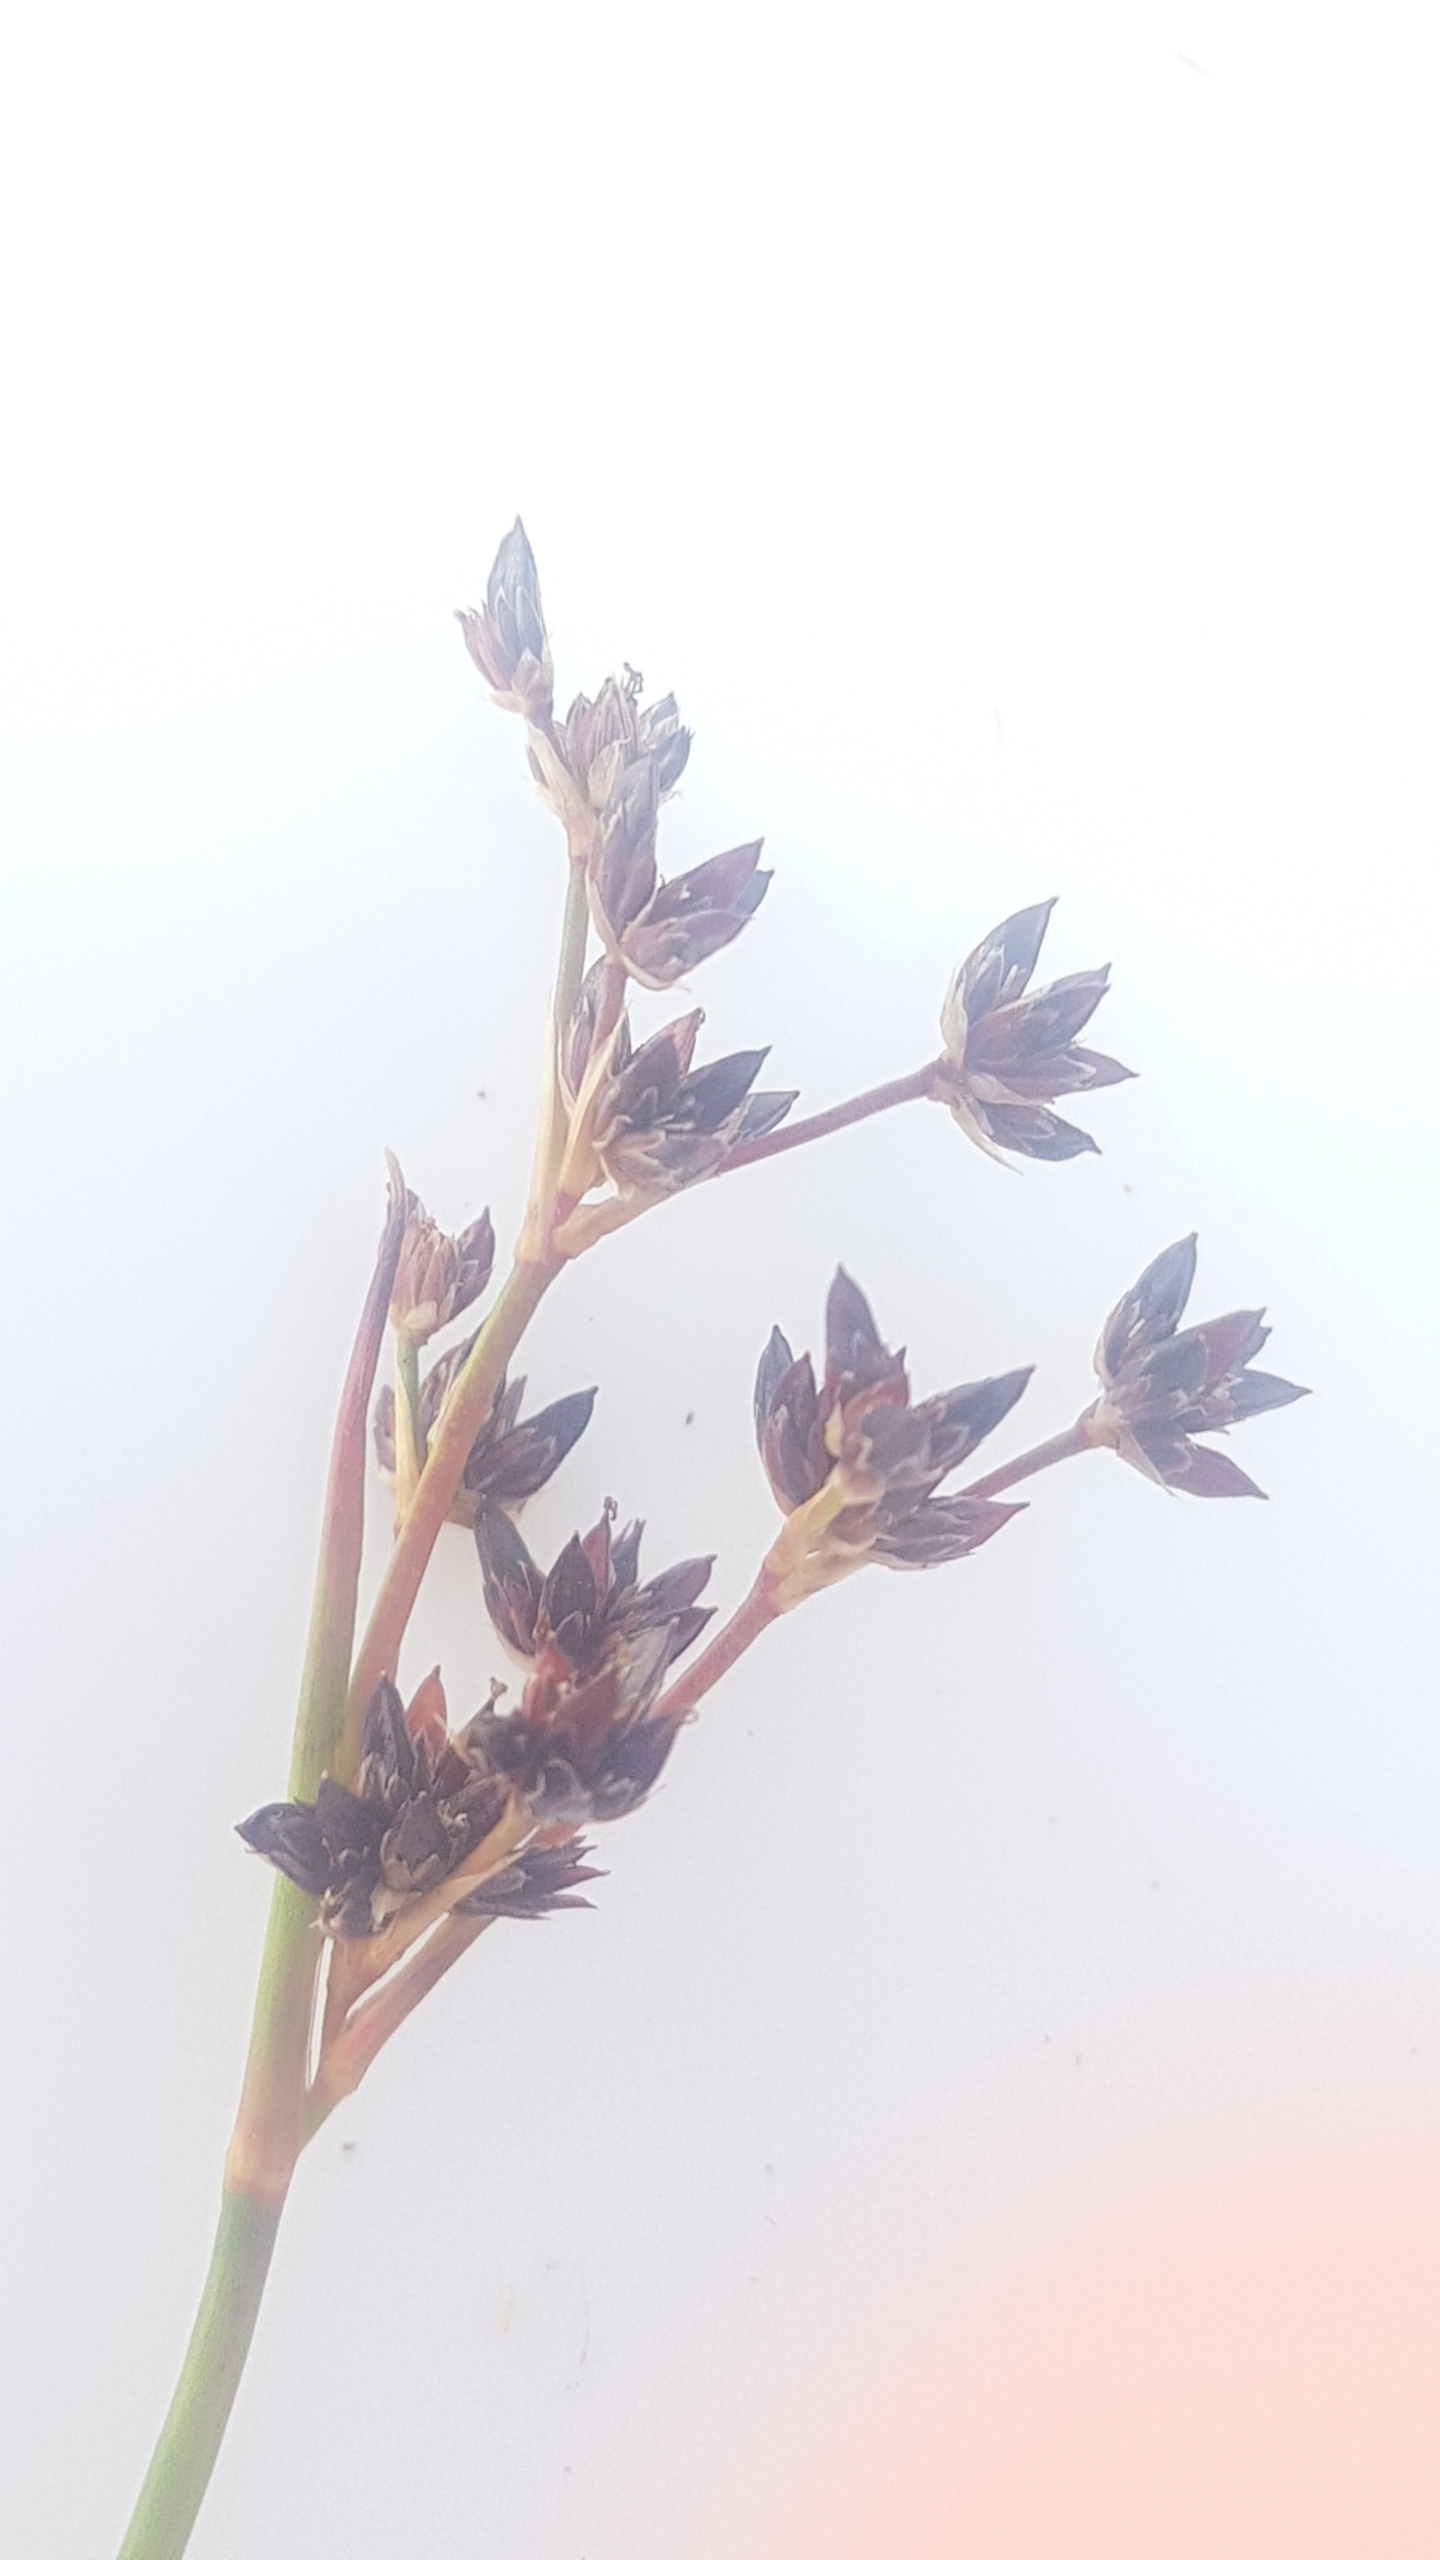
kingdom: Plantae
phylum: Tracheophyta
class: Liliopsida
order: Poales
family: Juncaceae
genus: Juncus
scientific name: Juncus articulatus
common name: Glanskapslet siv
